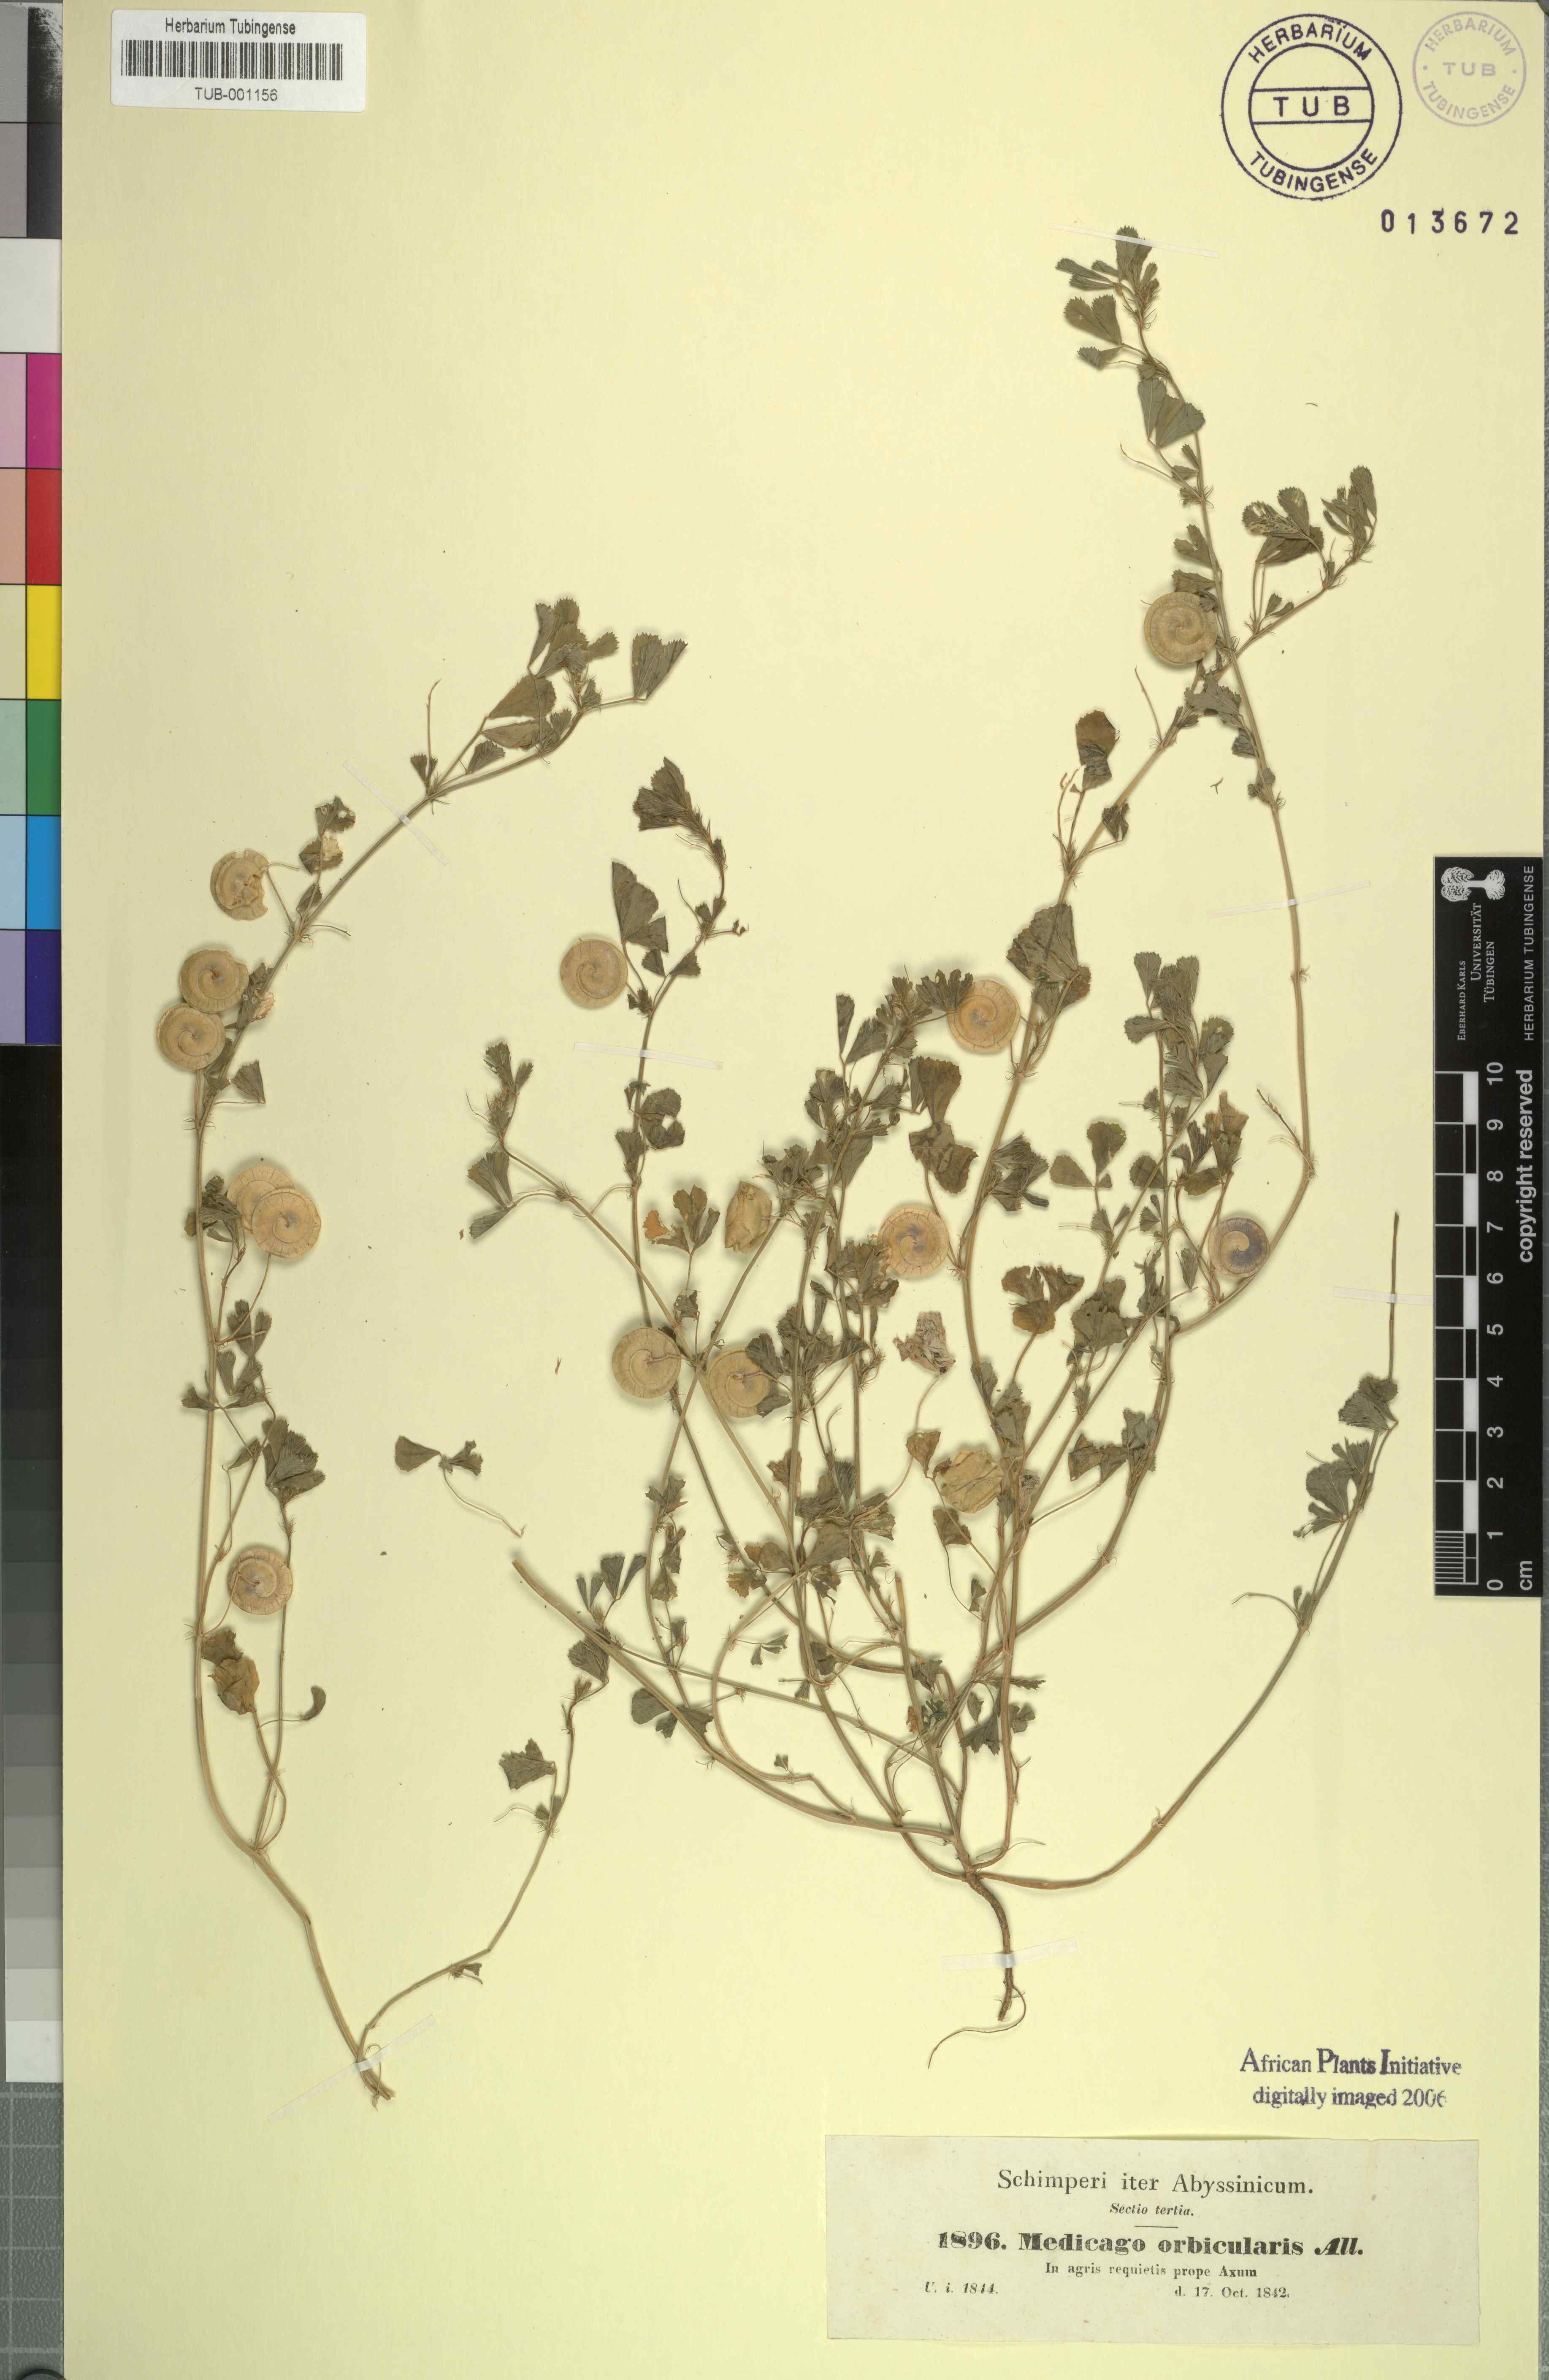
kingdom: Plantae
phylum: Tracheophyta
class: Magnoliopsida
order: Fabales
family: Fabaceae
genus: Medicago
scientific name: Medicago orbicularis
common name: Button medick
